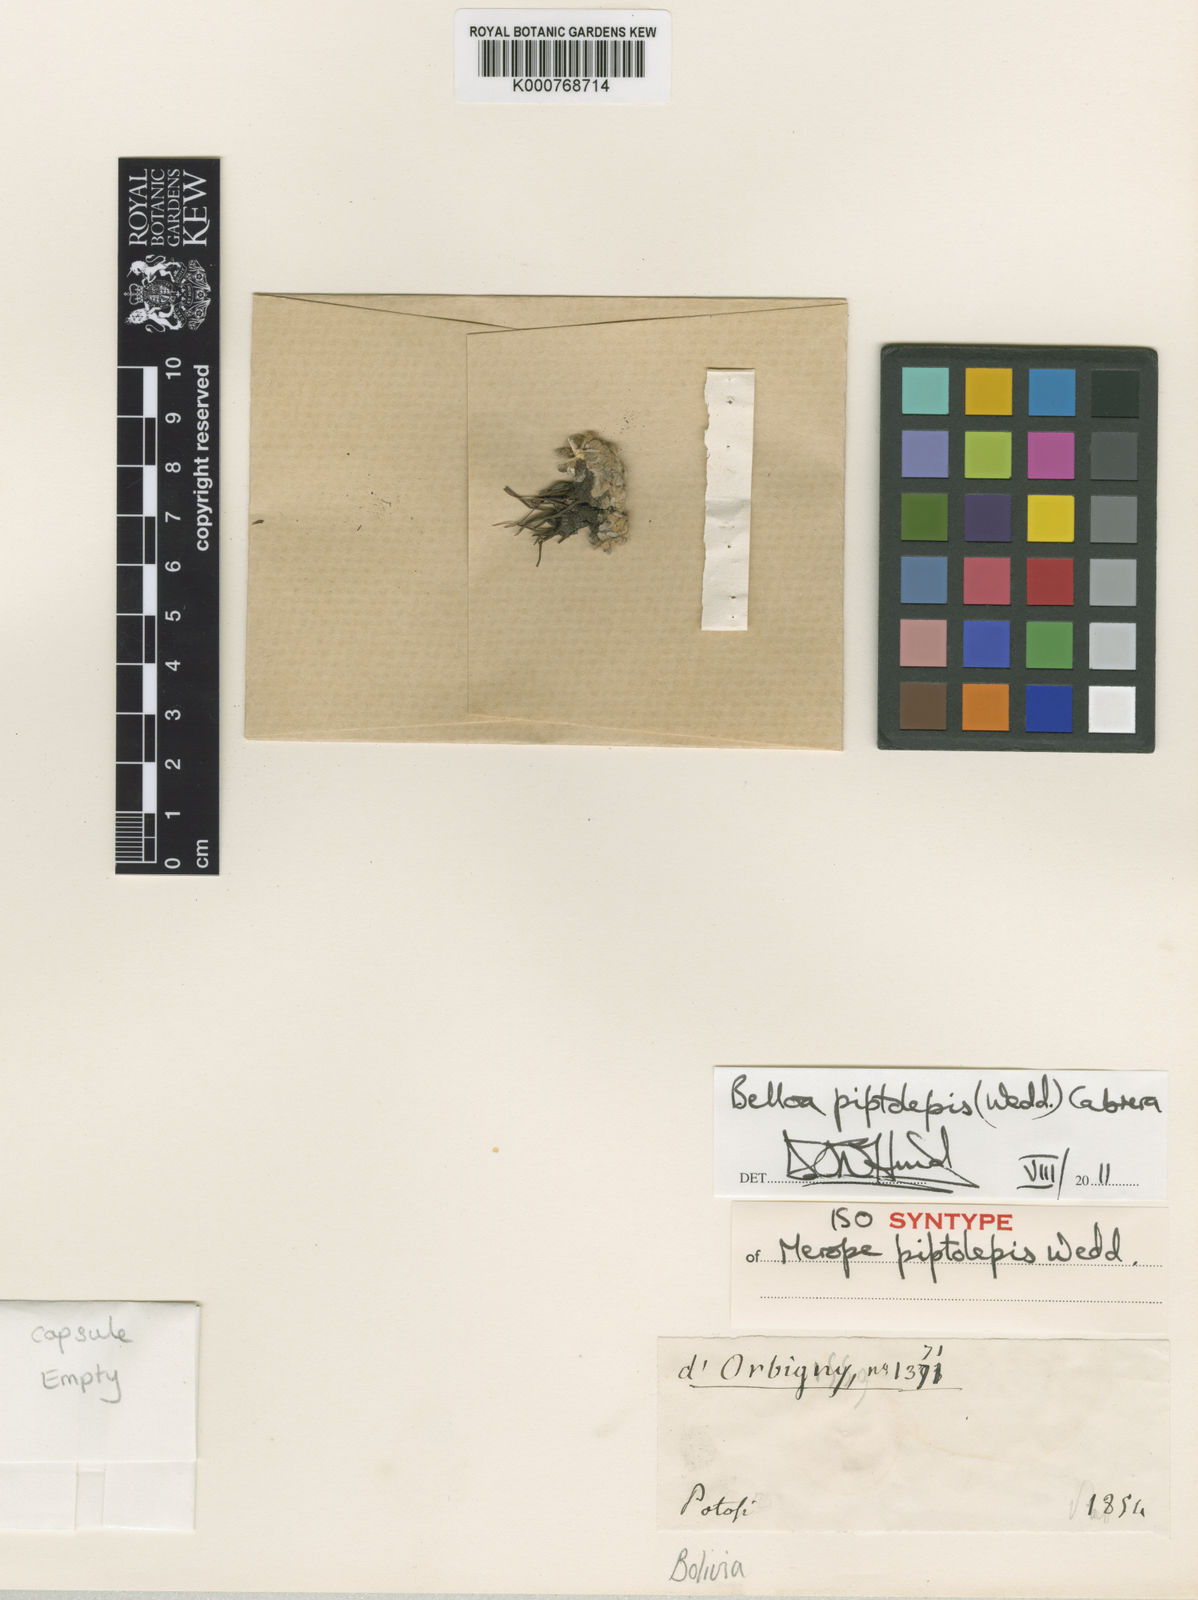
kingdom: Plantae
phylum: Tracheophyta
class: Magnoliopsida
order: Asterales
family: Asteraceae
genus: Mniodes
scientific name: Mniodes piptolepis
